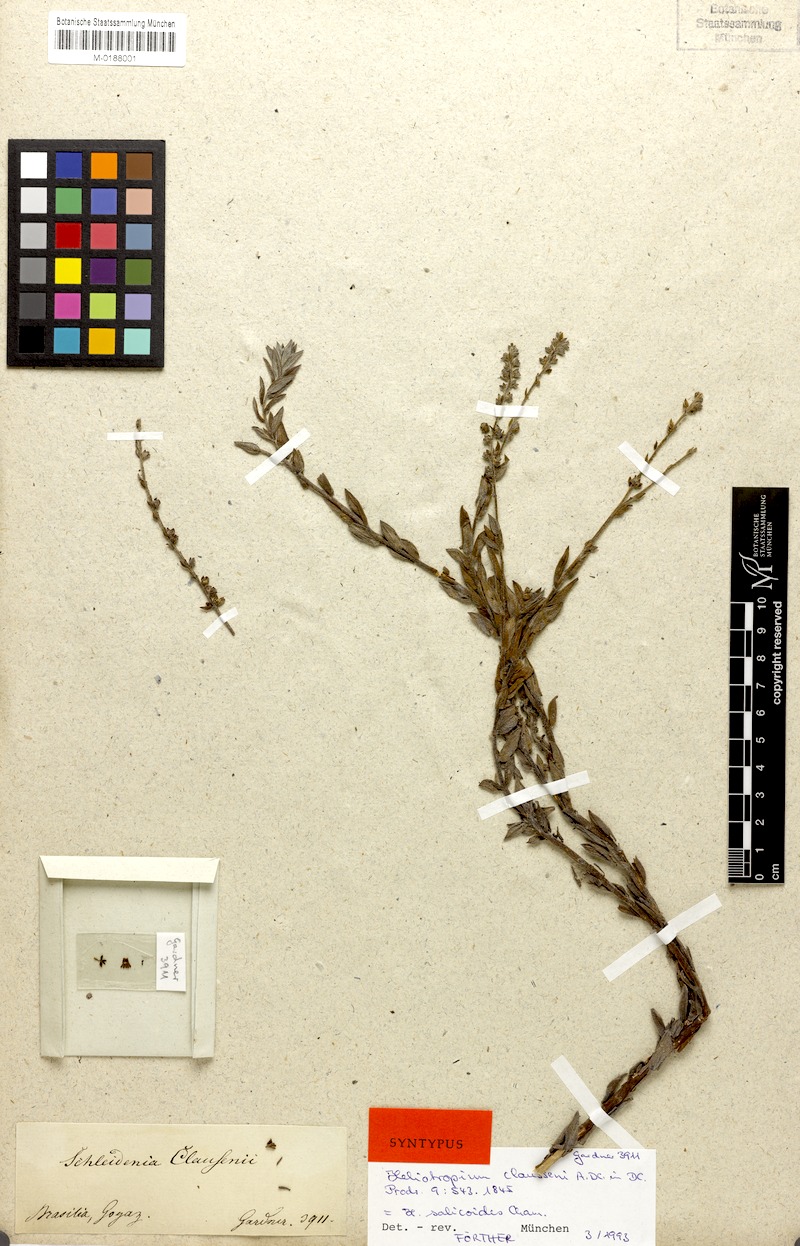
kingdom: Plantae
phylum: Tracheophyta
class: Magnoliopsida
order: Boraginales
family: Heliotropiaceae
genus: Euploca
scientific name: Euploca salicoides
